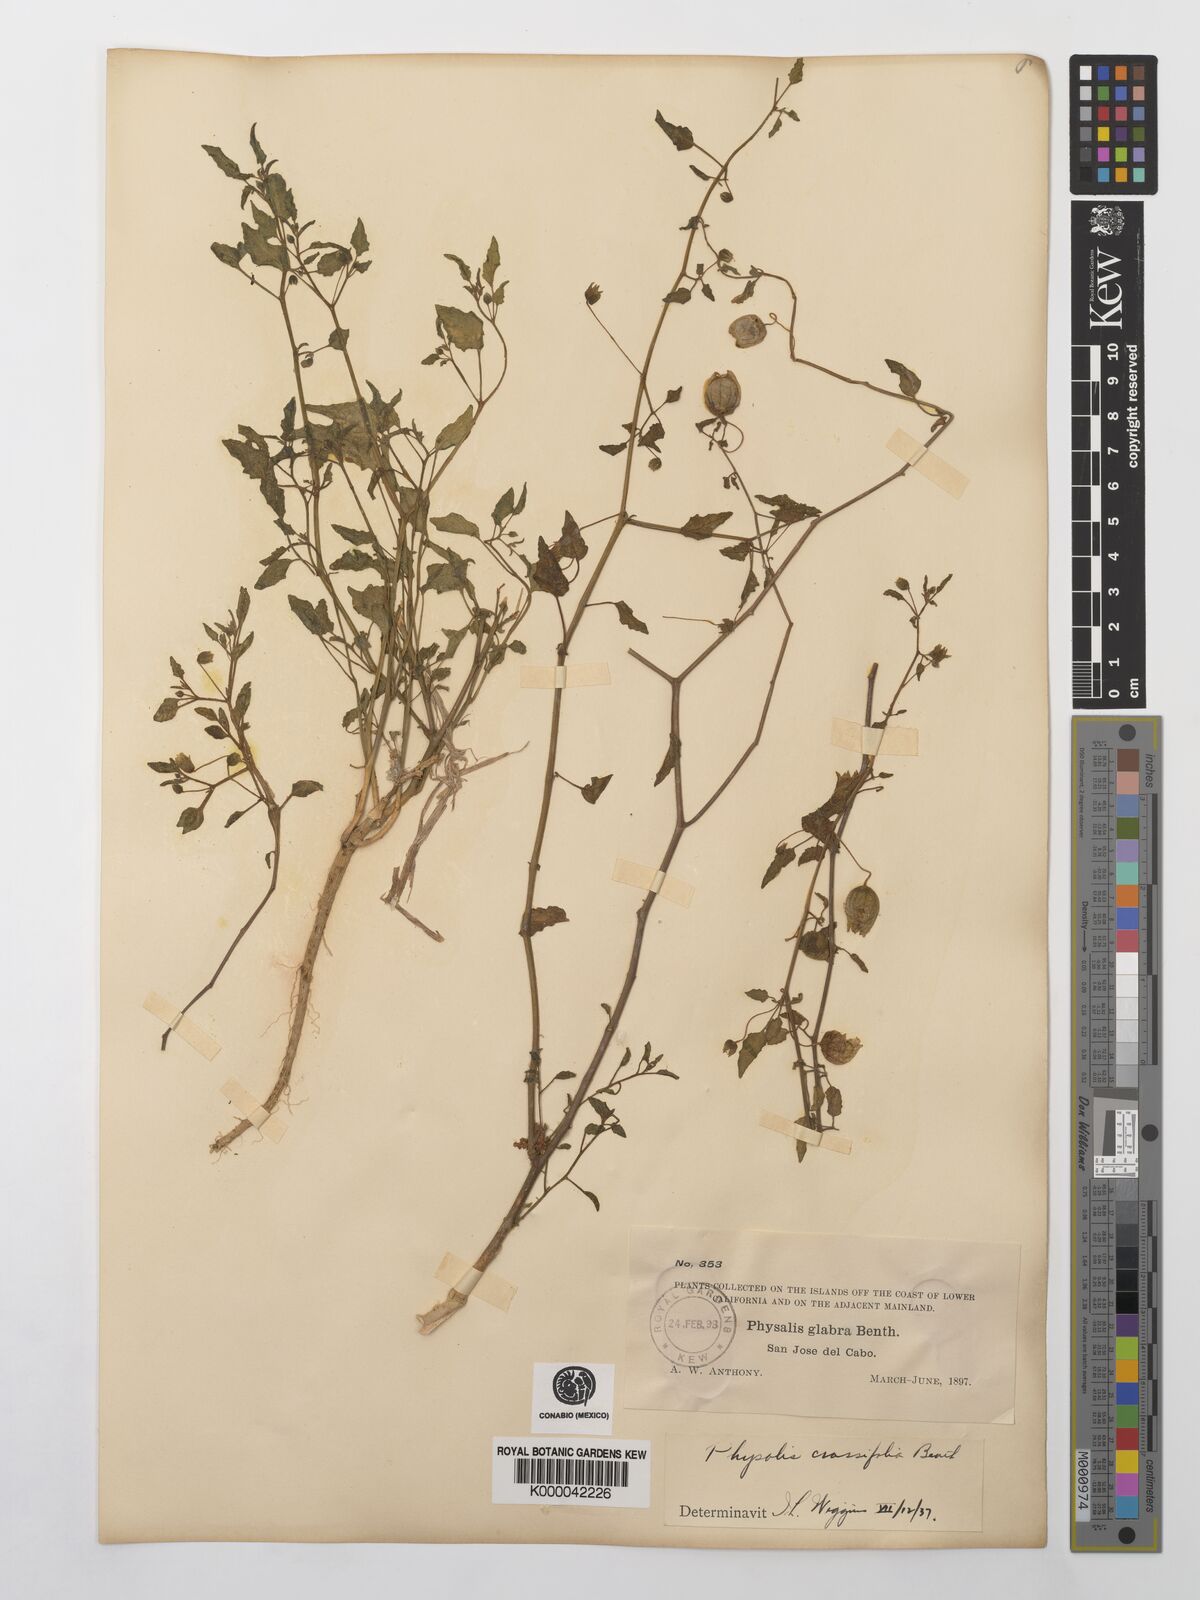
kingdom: Plantae
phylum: Tracheophyta
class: Magnoliopsida
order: Solanales
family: Solanaceae
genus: Physalis
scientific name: Physalis crassifolia
